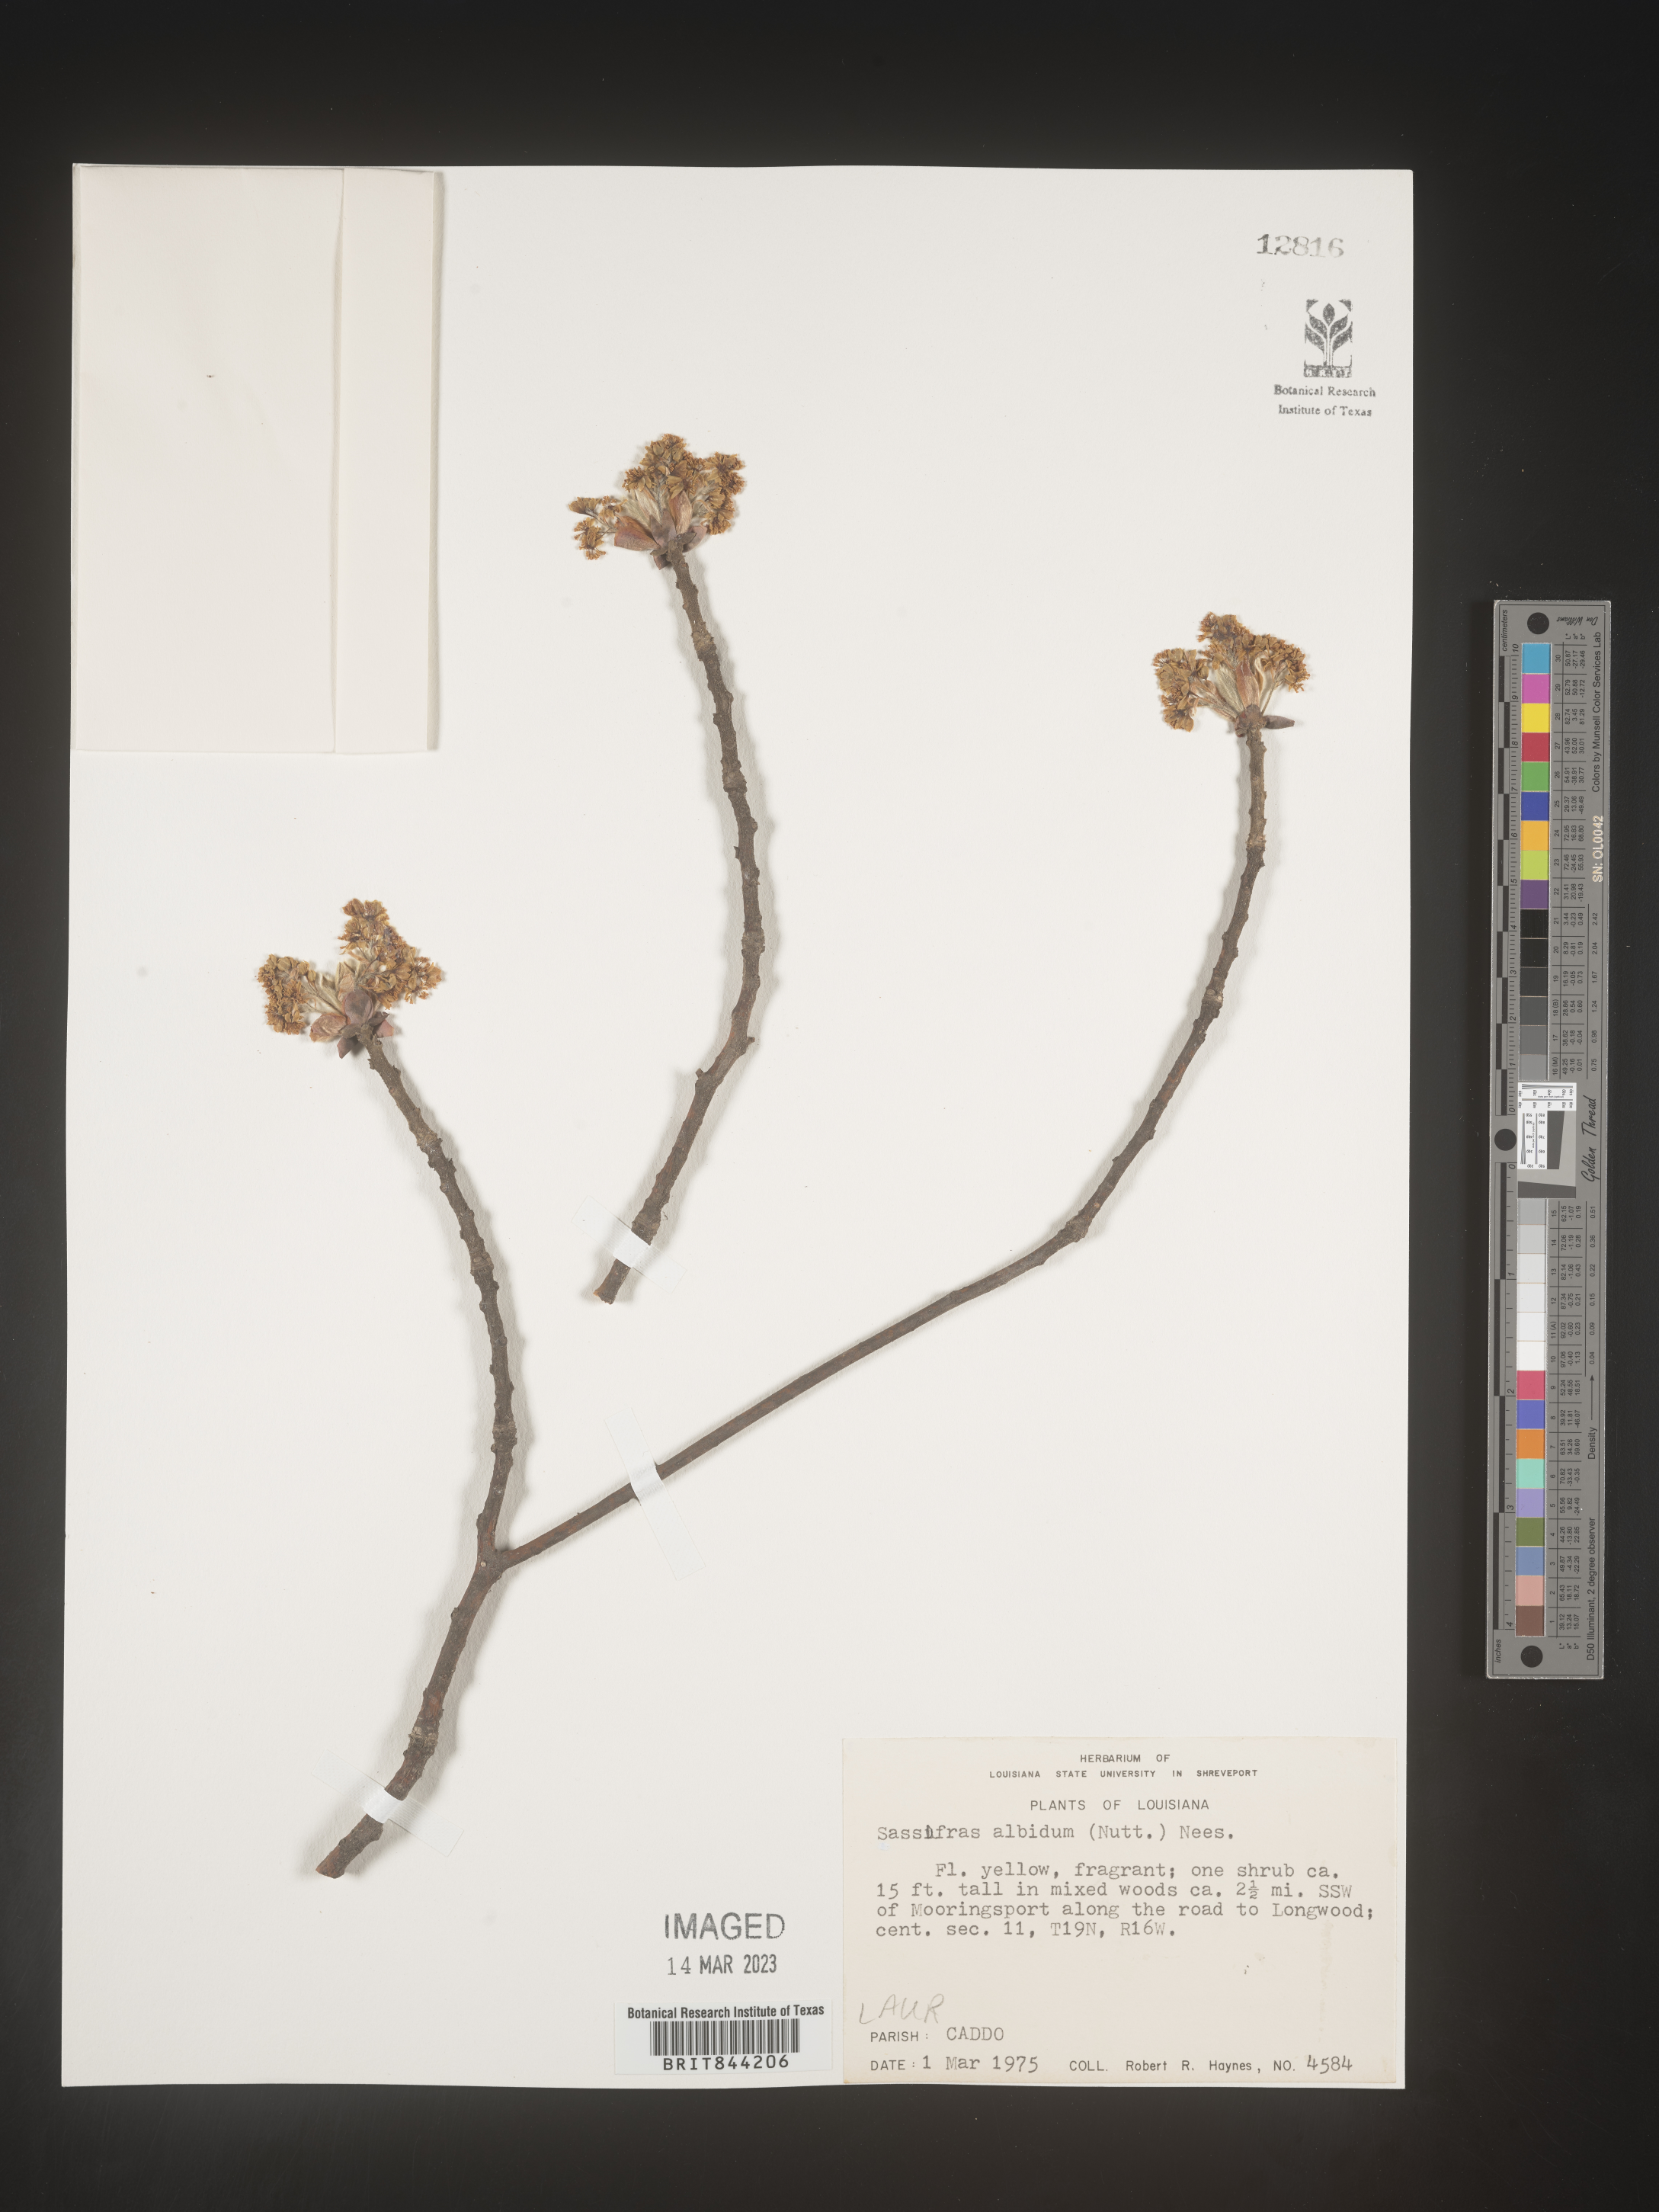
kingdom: Plantae
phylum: Tracheophyta
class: Magnoliopsida
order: Laurales
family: Lauraceae
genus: Sassafras
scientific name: Sassafras albidum
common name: Sassafras
